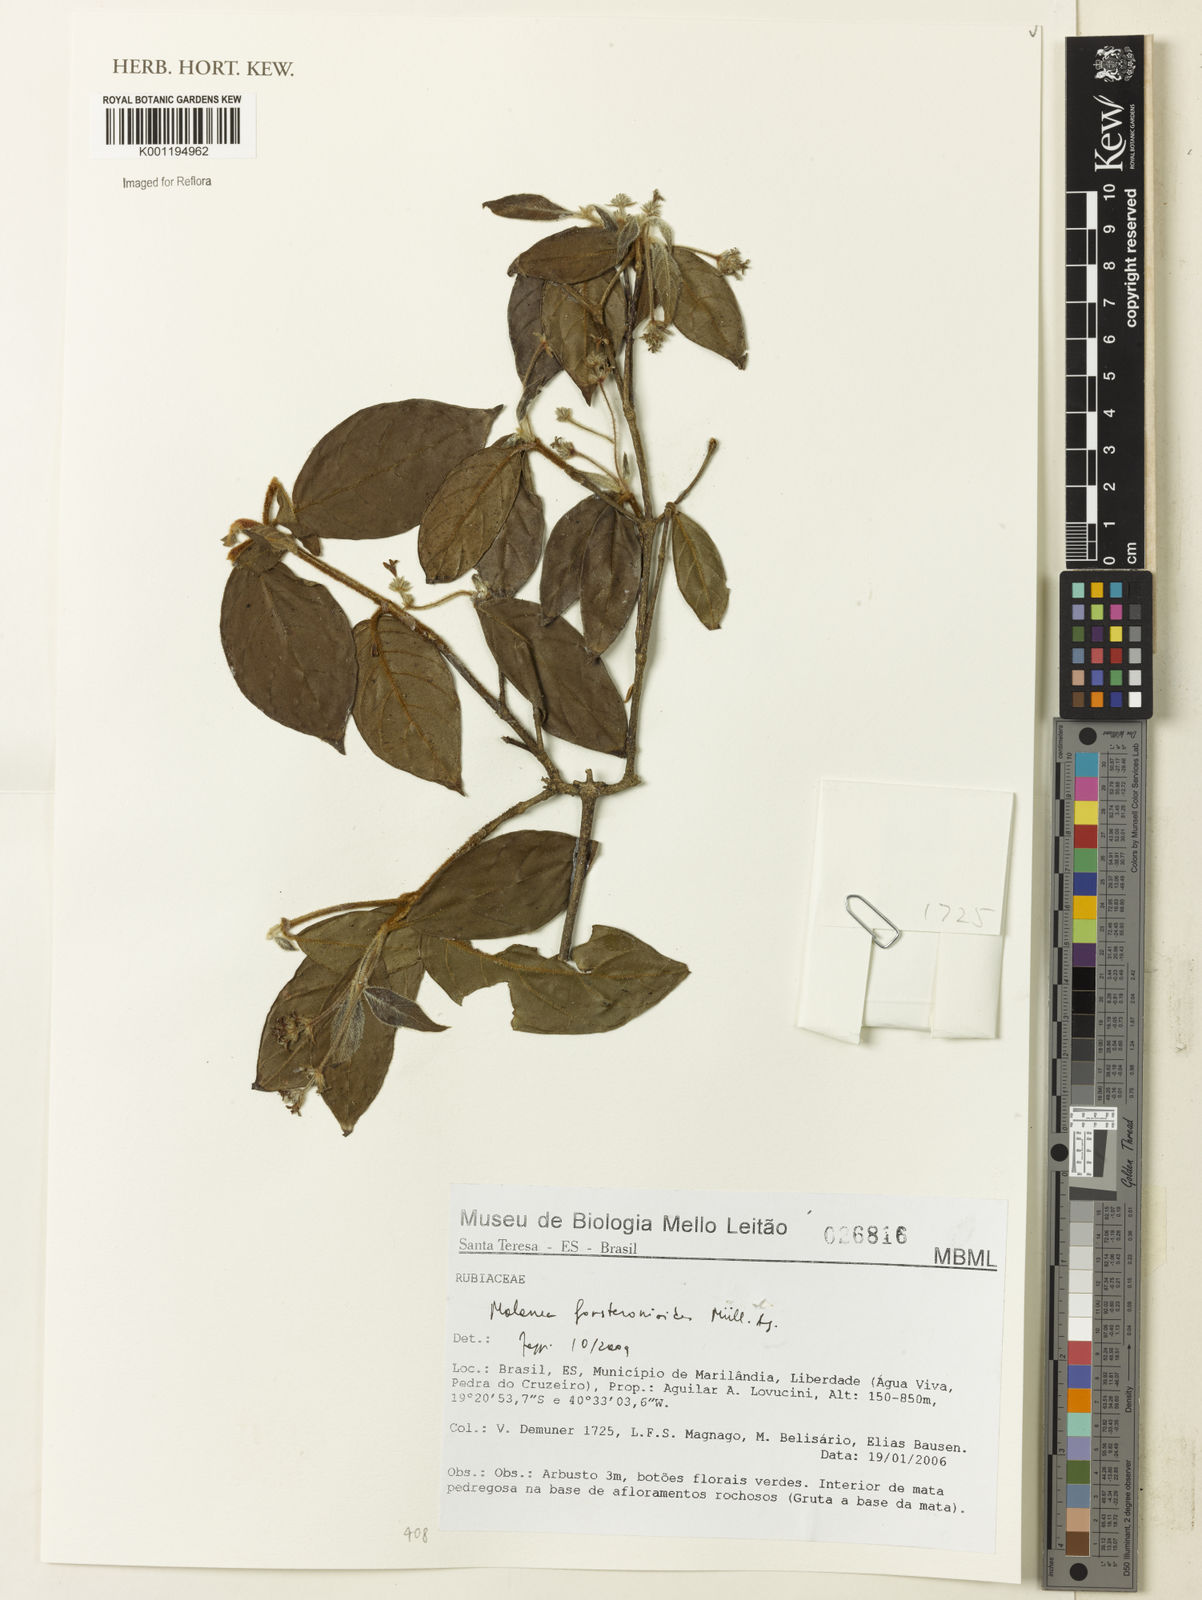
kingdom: Plantae
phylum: Tracheophyta
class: Magnoliopsida
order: Gentianales
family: Rubiaceae
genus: Malanea
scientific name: Malanea
